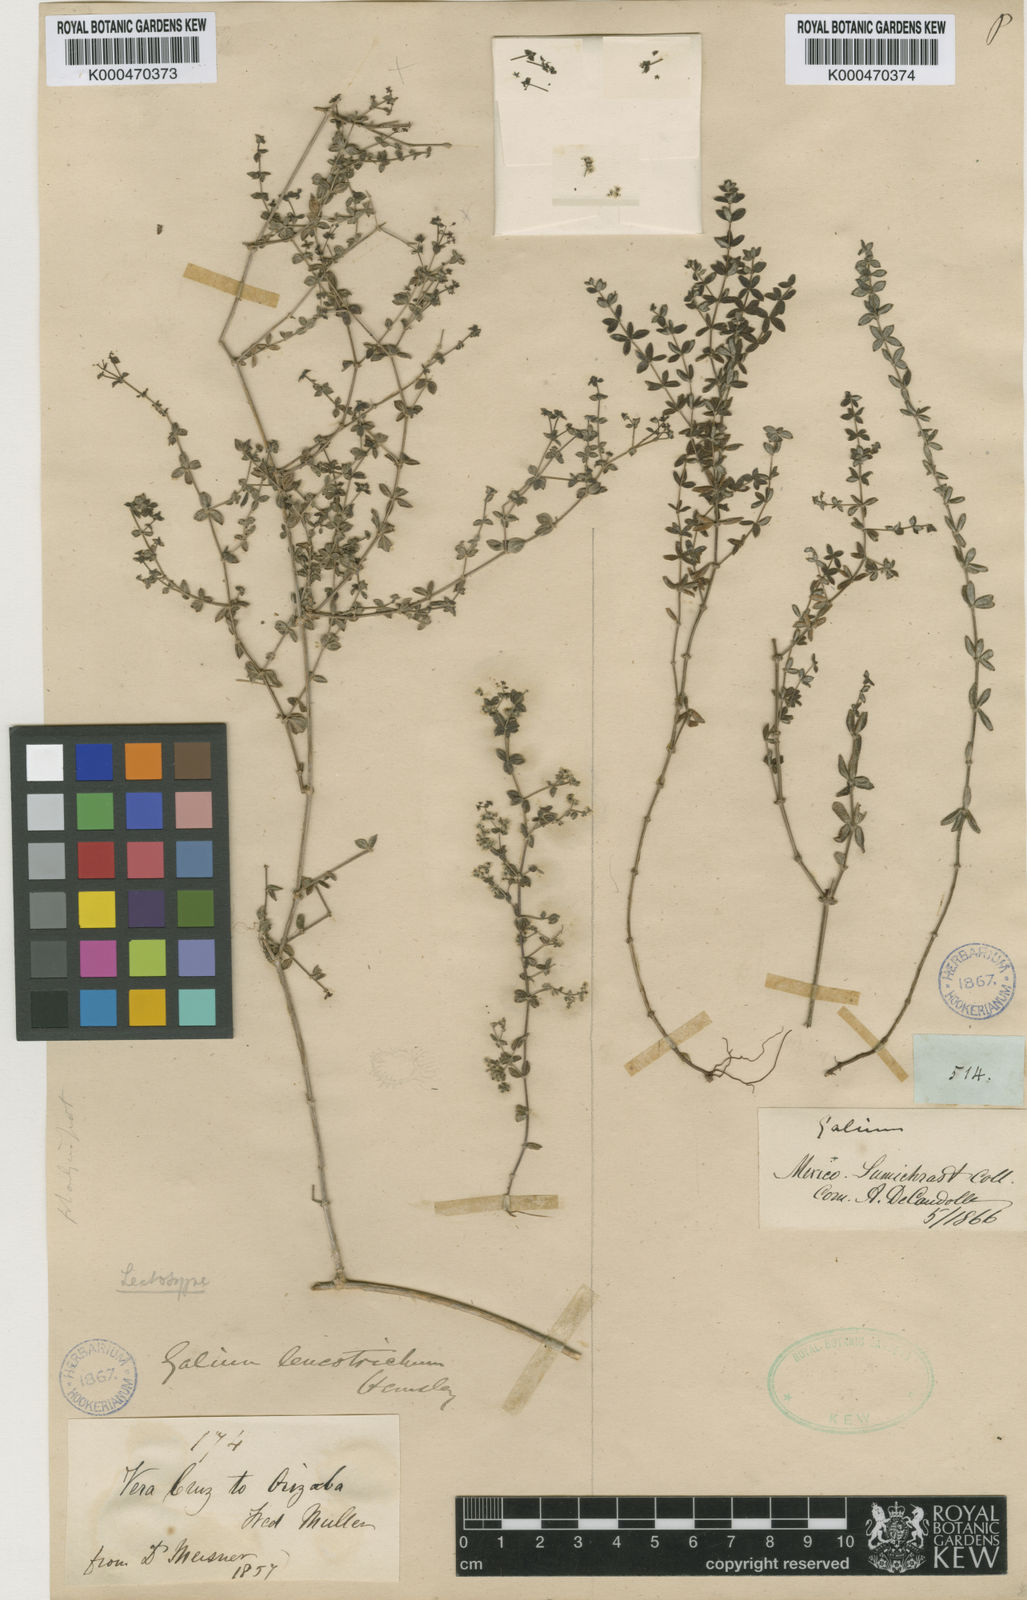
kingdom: Plantae
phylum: Tracheophyta
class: Magnoliopsida
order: Gentianales
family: Rubiaceae
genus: Galium
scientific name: Galium fuscum
